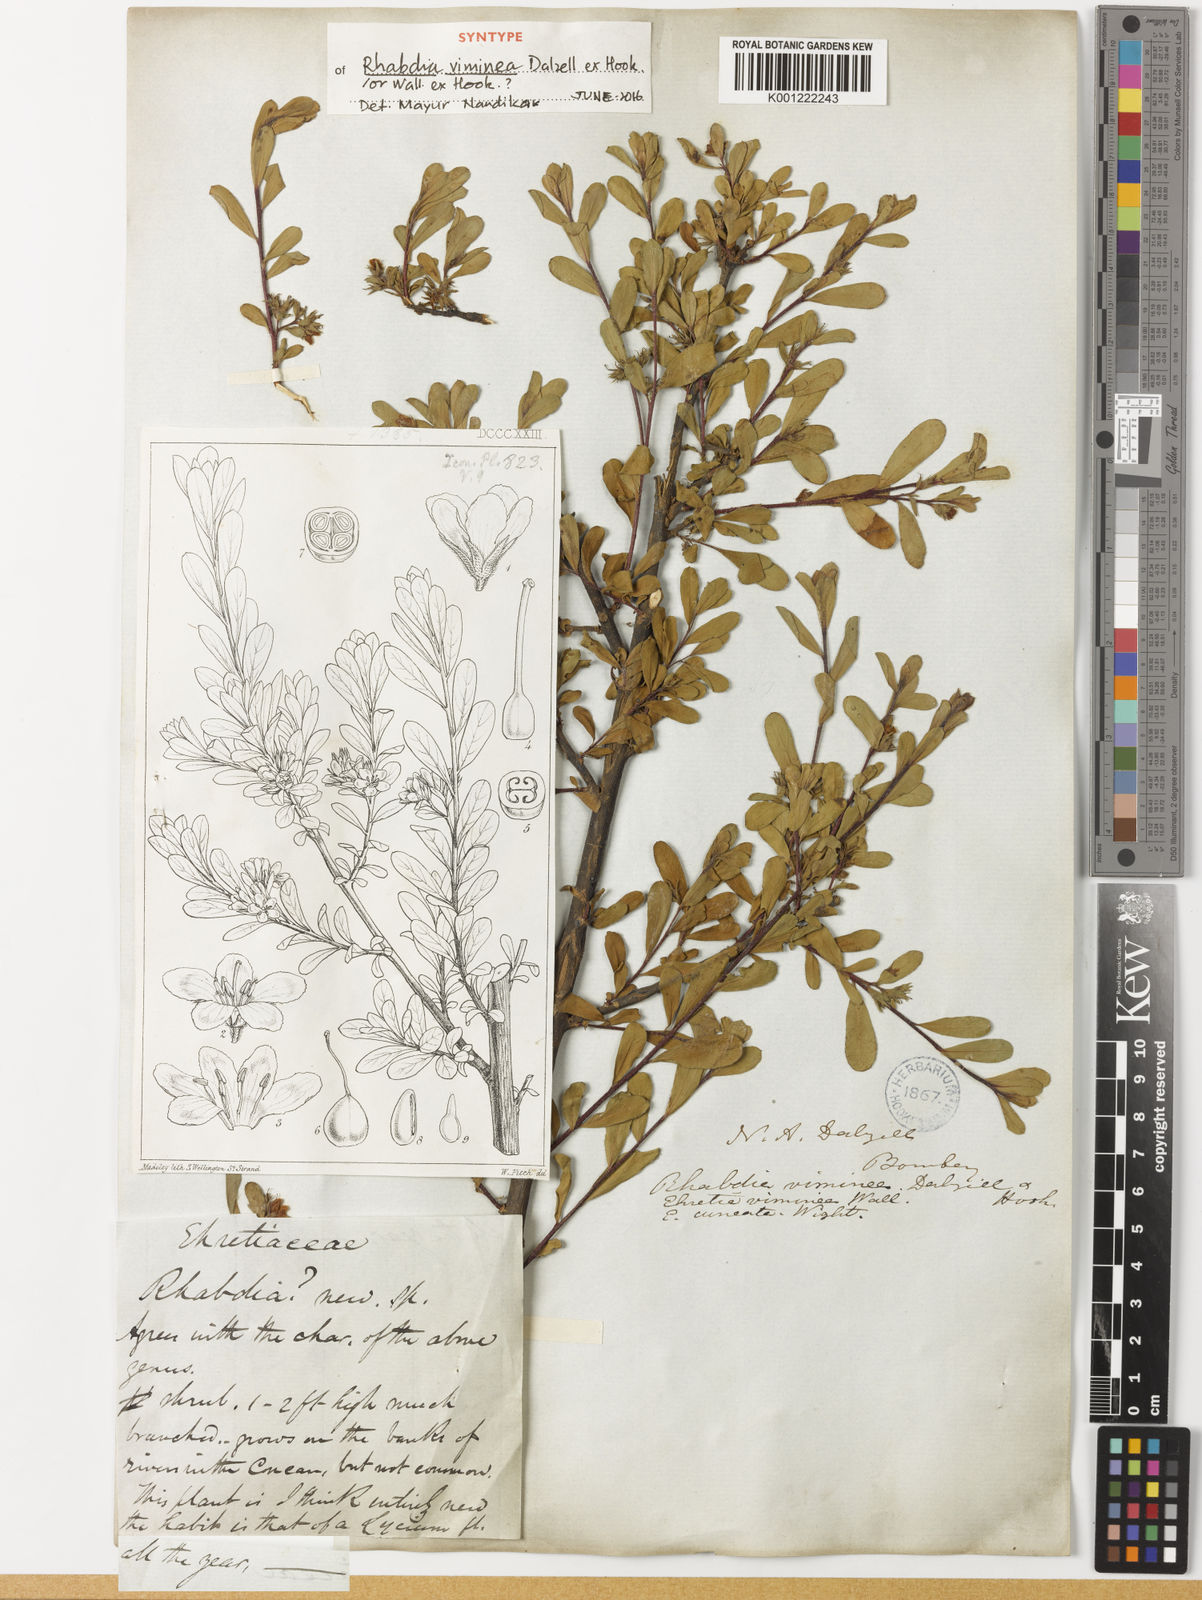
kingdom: Plantae
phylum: Tracheophyta
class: Magnoliopsida
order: Boraginales
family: Ehretiaceae
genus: Ehretia
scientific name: Ehretia aquatica
